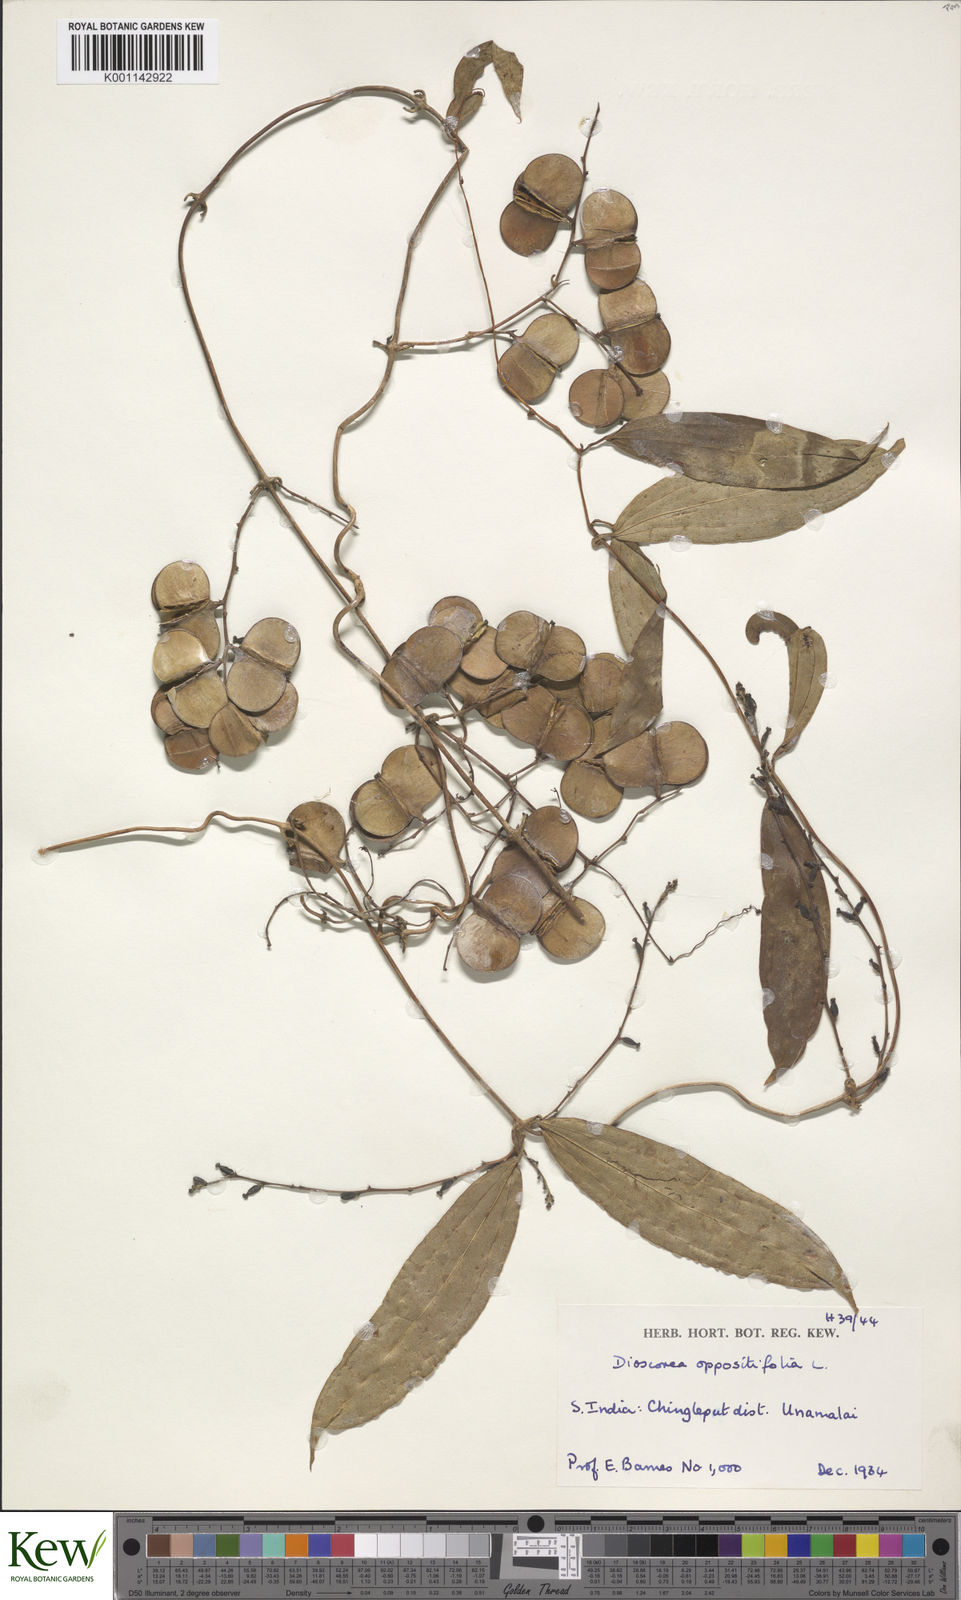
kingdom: Plantae
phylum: Tracheophyta
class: Liliopsida
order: Dioscoreales
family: Dioscoreaceae
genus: Dioscorea
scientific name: Dioscorea oppositifolia
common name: Chinese yam
